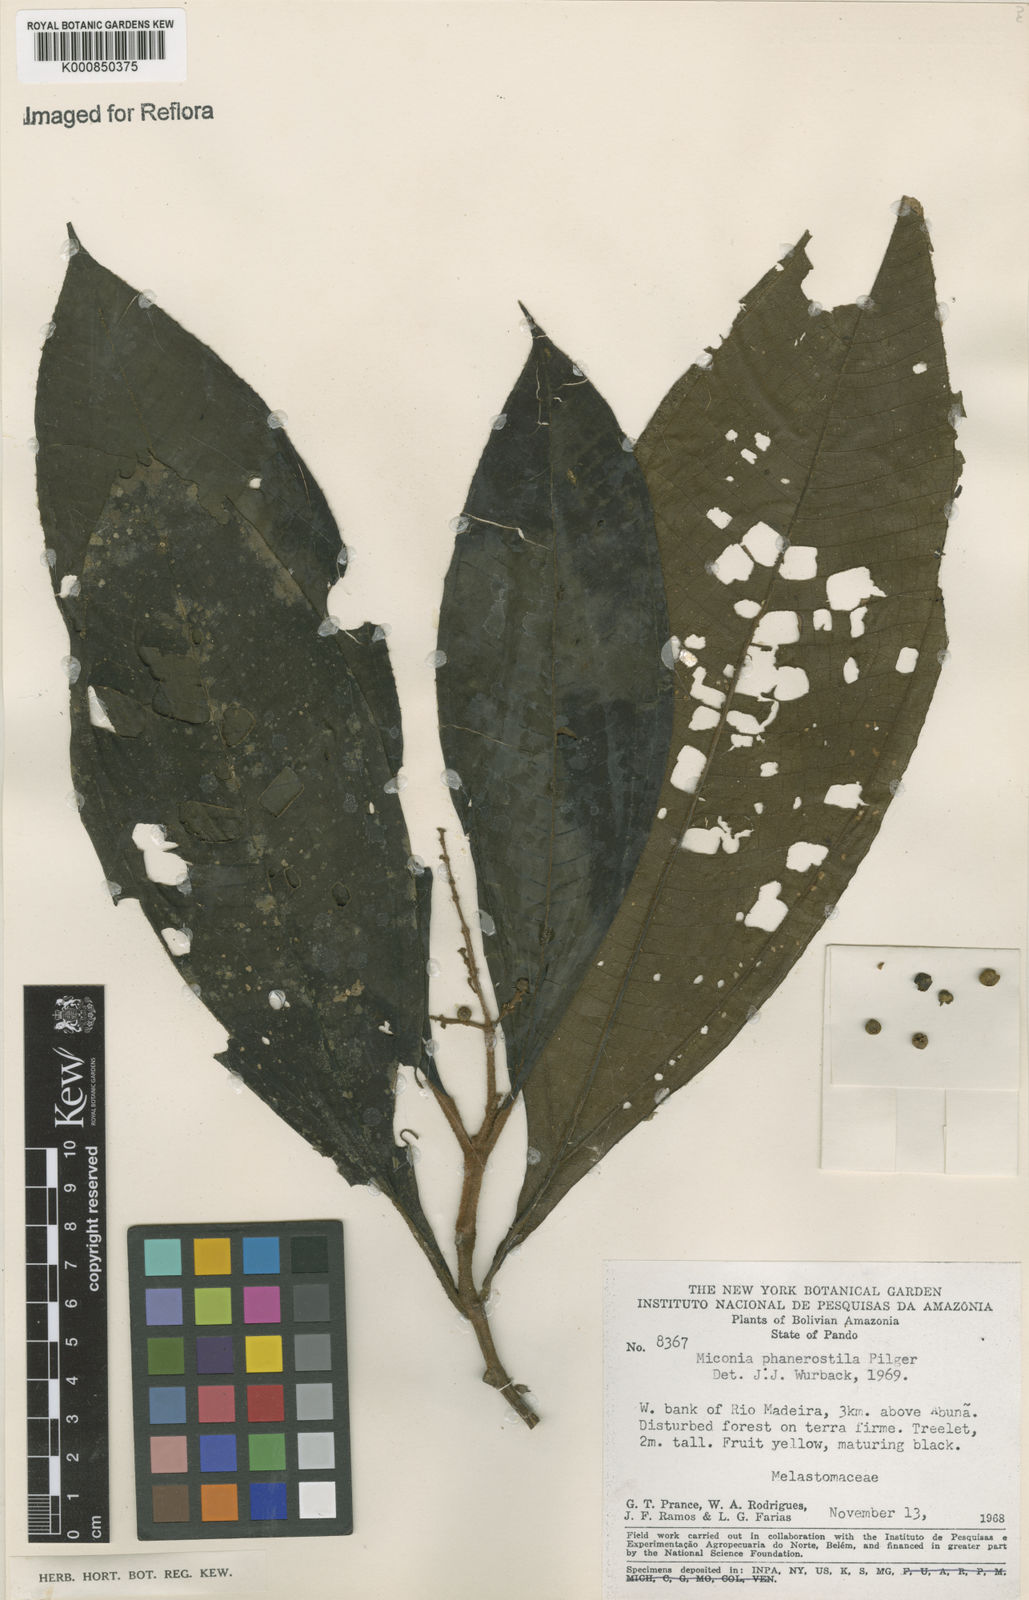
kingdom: Plantae
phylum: Tracheophyta
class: Magnoliopsida
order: Myrtales
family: Melastomataceae
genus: Miconia
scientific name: Miconia phanerostila
